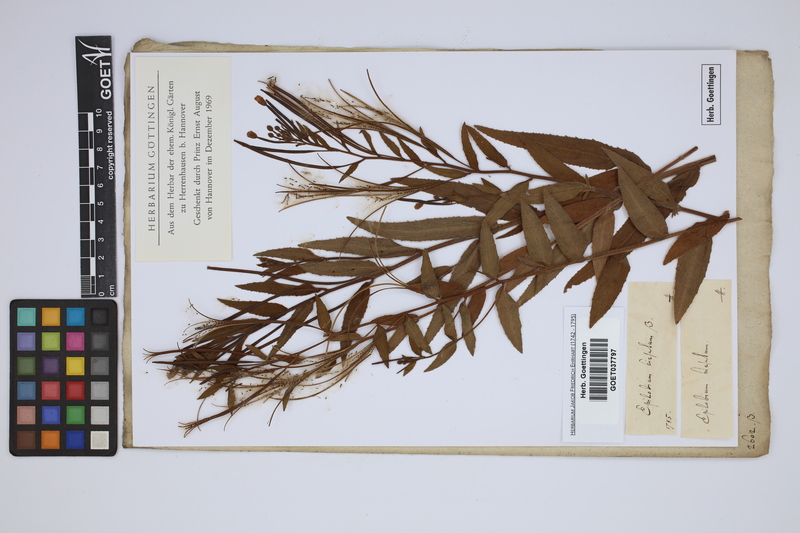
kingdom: Plantae
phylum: Tracheophyta
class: Magnoliopsida
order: Myrtales
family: Onagraceae
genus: Epilobium
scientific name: Epilobium hirsutum
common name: Great willowherb
